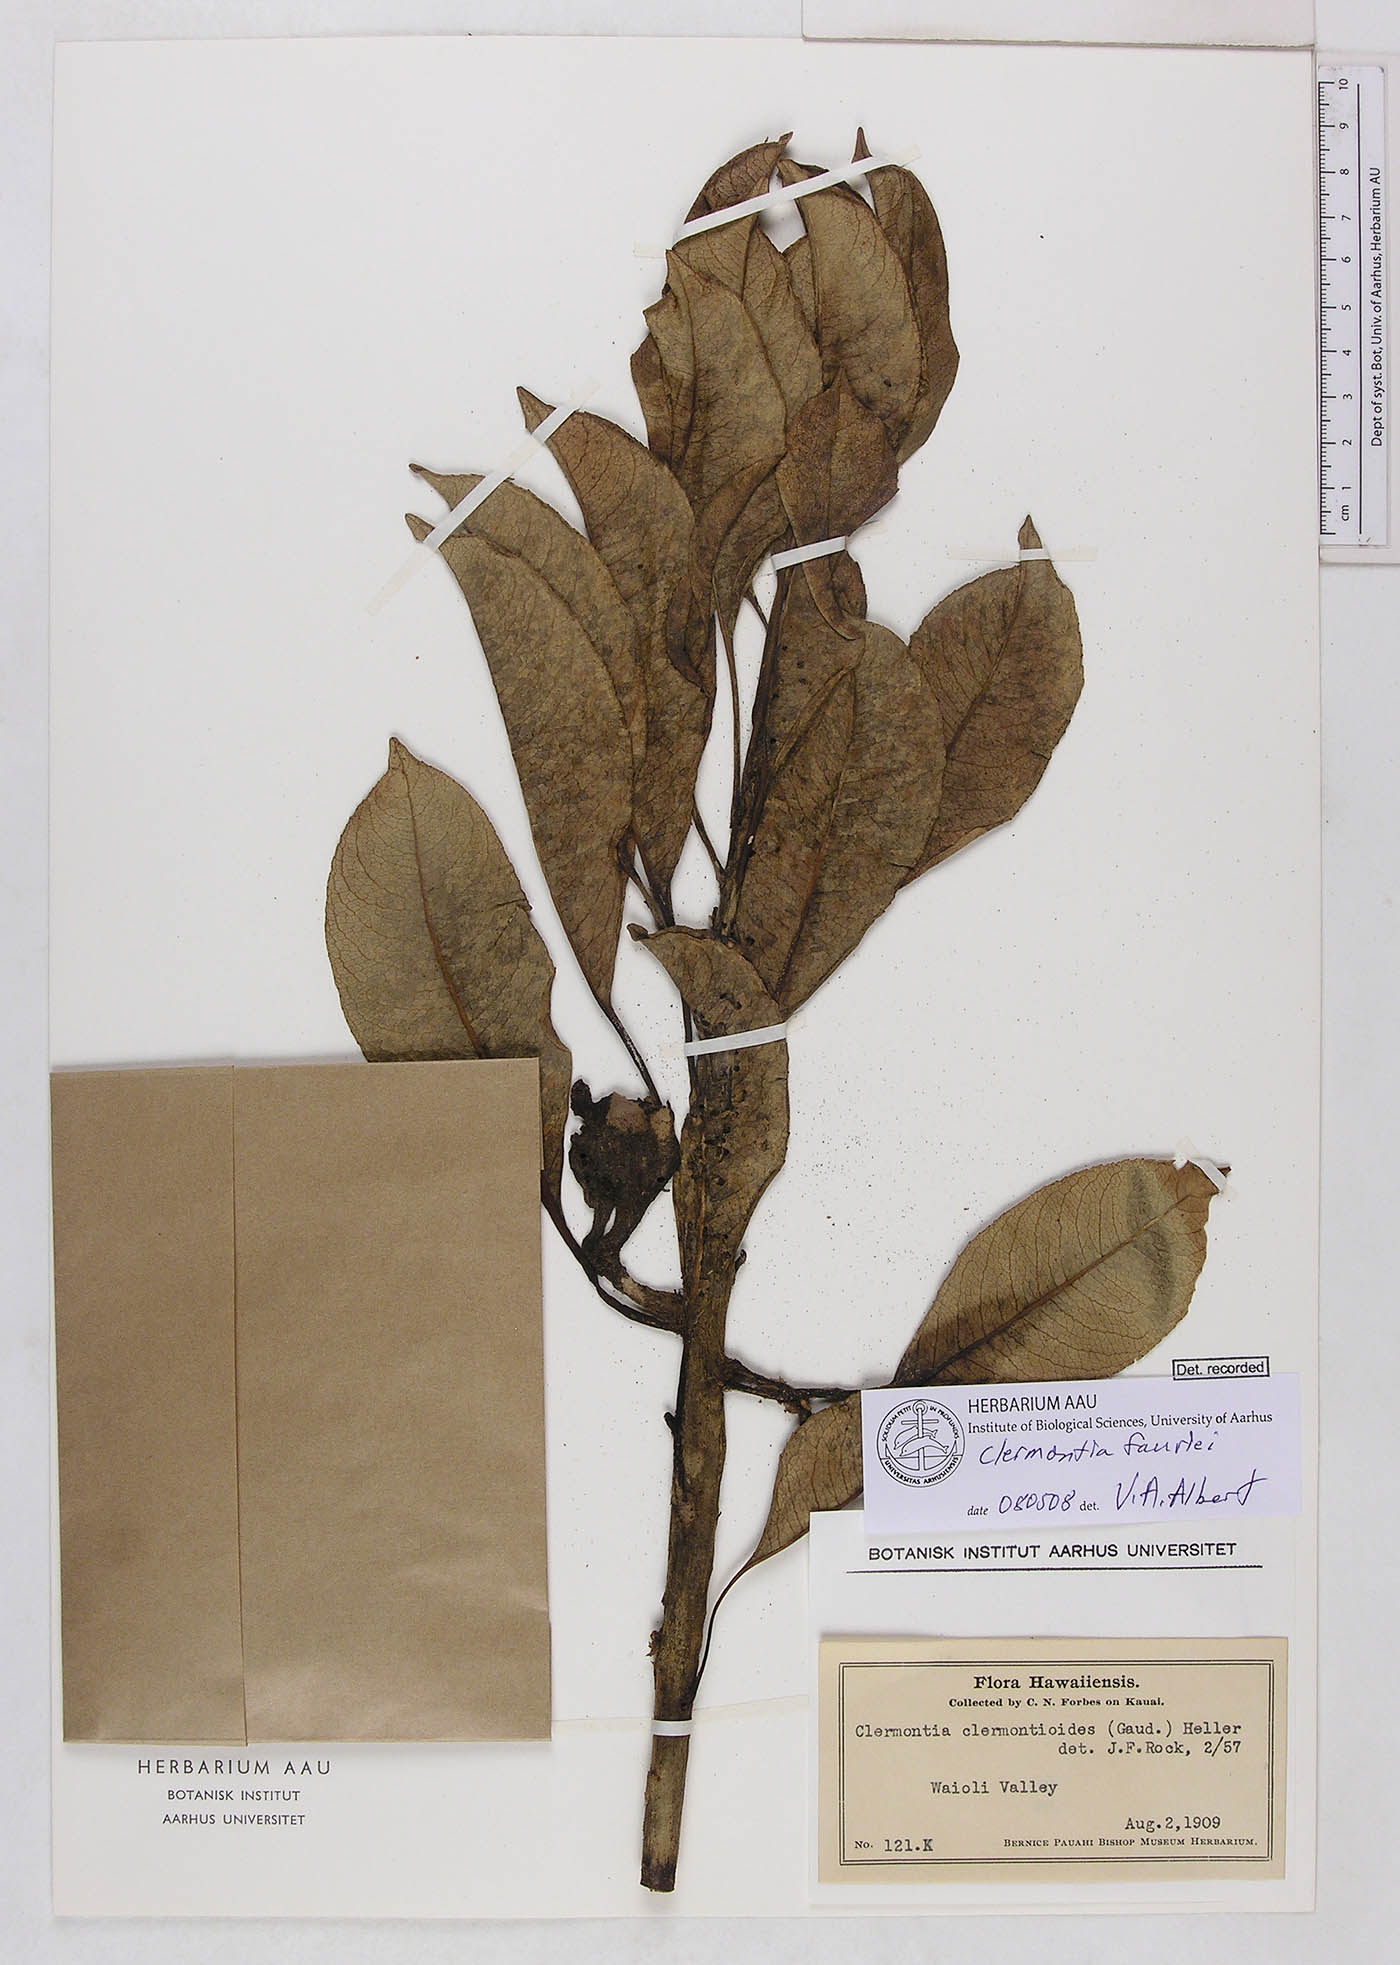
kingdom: Plantae
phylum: Tracheophyta
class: Magnoliopsida
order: Asterales
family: Campanulaceae
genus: Clermontia
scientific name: Clermontia fauriei
